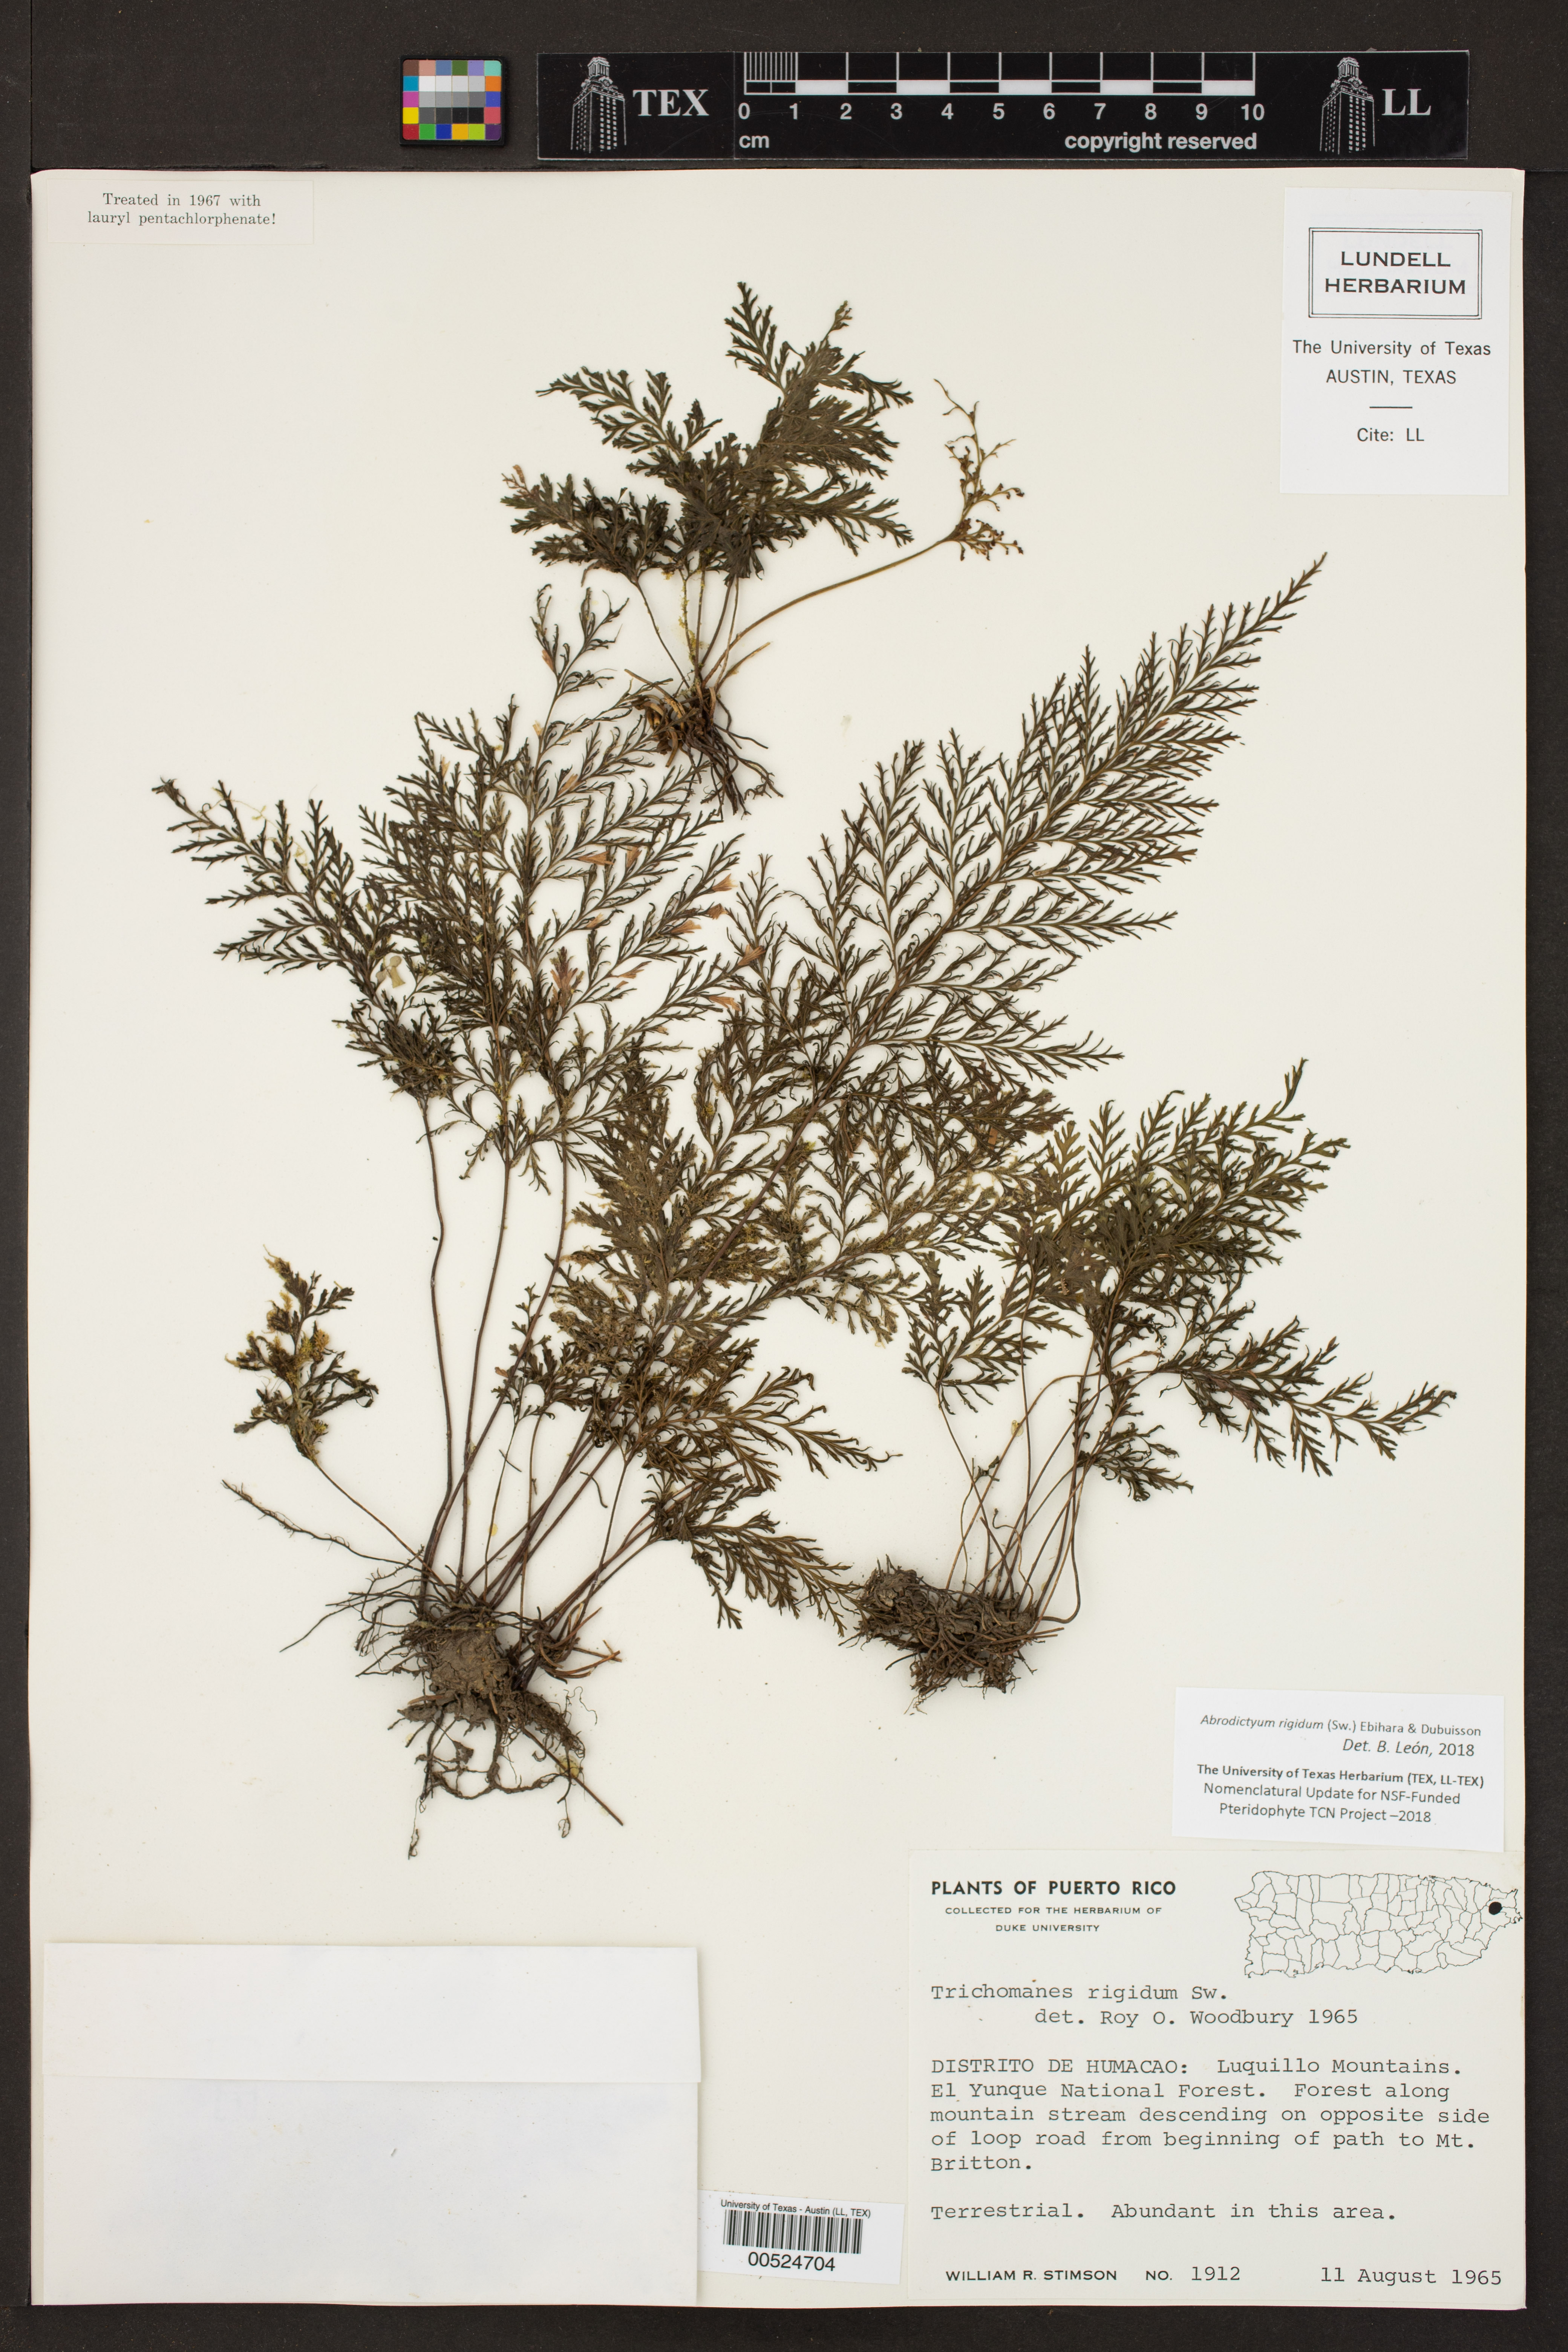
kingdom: Plantae
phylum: Tracheophyta
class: Polypodiopsida
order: Hymenophyllales
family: Hymenophyllaceae
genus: Abrodictyum
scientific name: Abrodictyum rigidum
